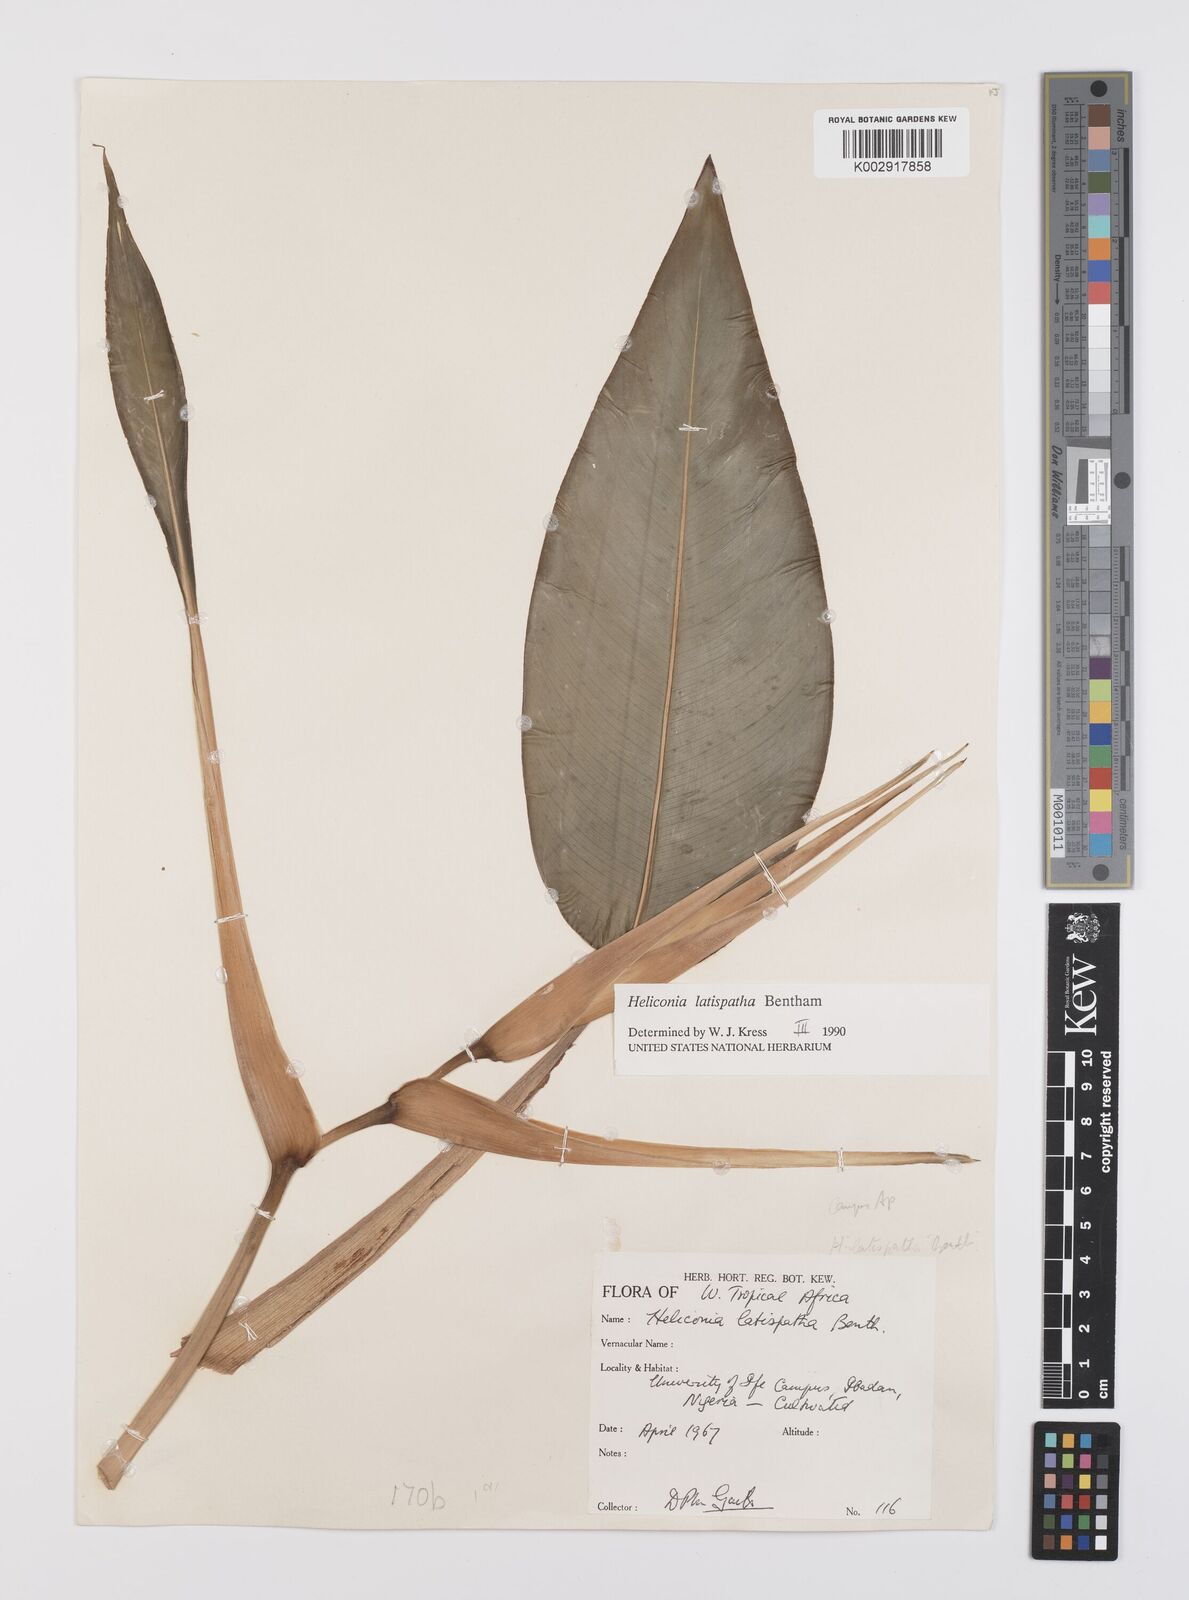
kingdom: Plantae
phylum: Tracheophyta
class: Liliopsida
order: Zingiberales
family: Heliconiaceae
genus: Heliconia
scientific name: Heliconia latispatha
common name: Expanded lobsterclaw
